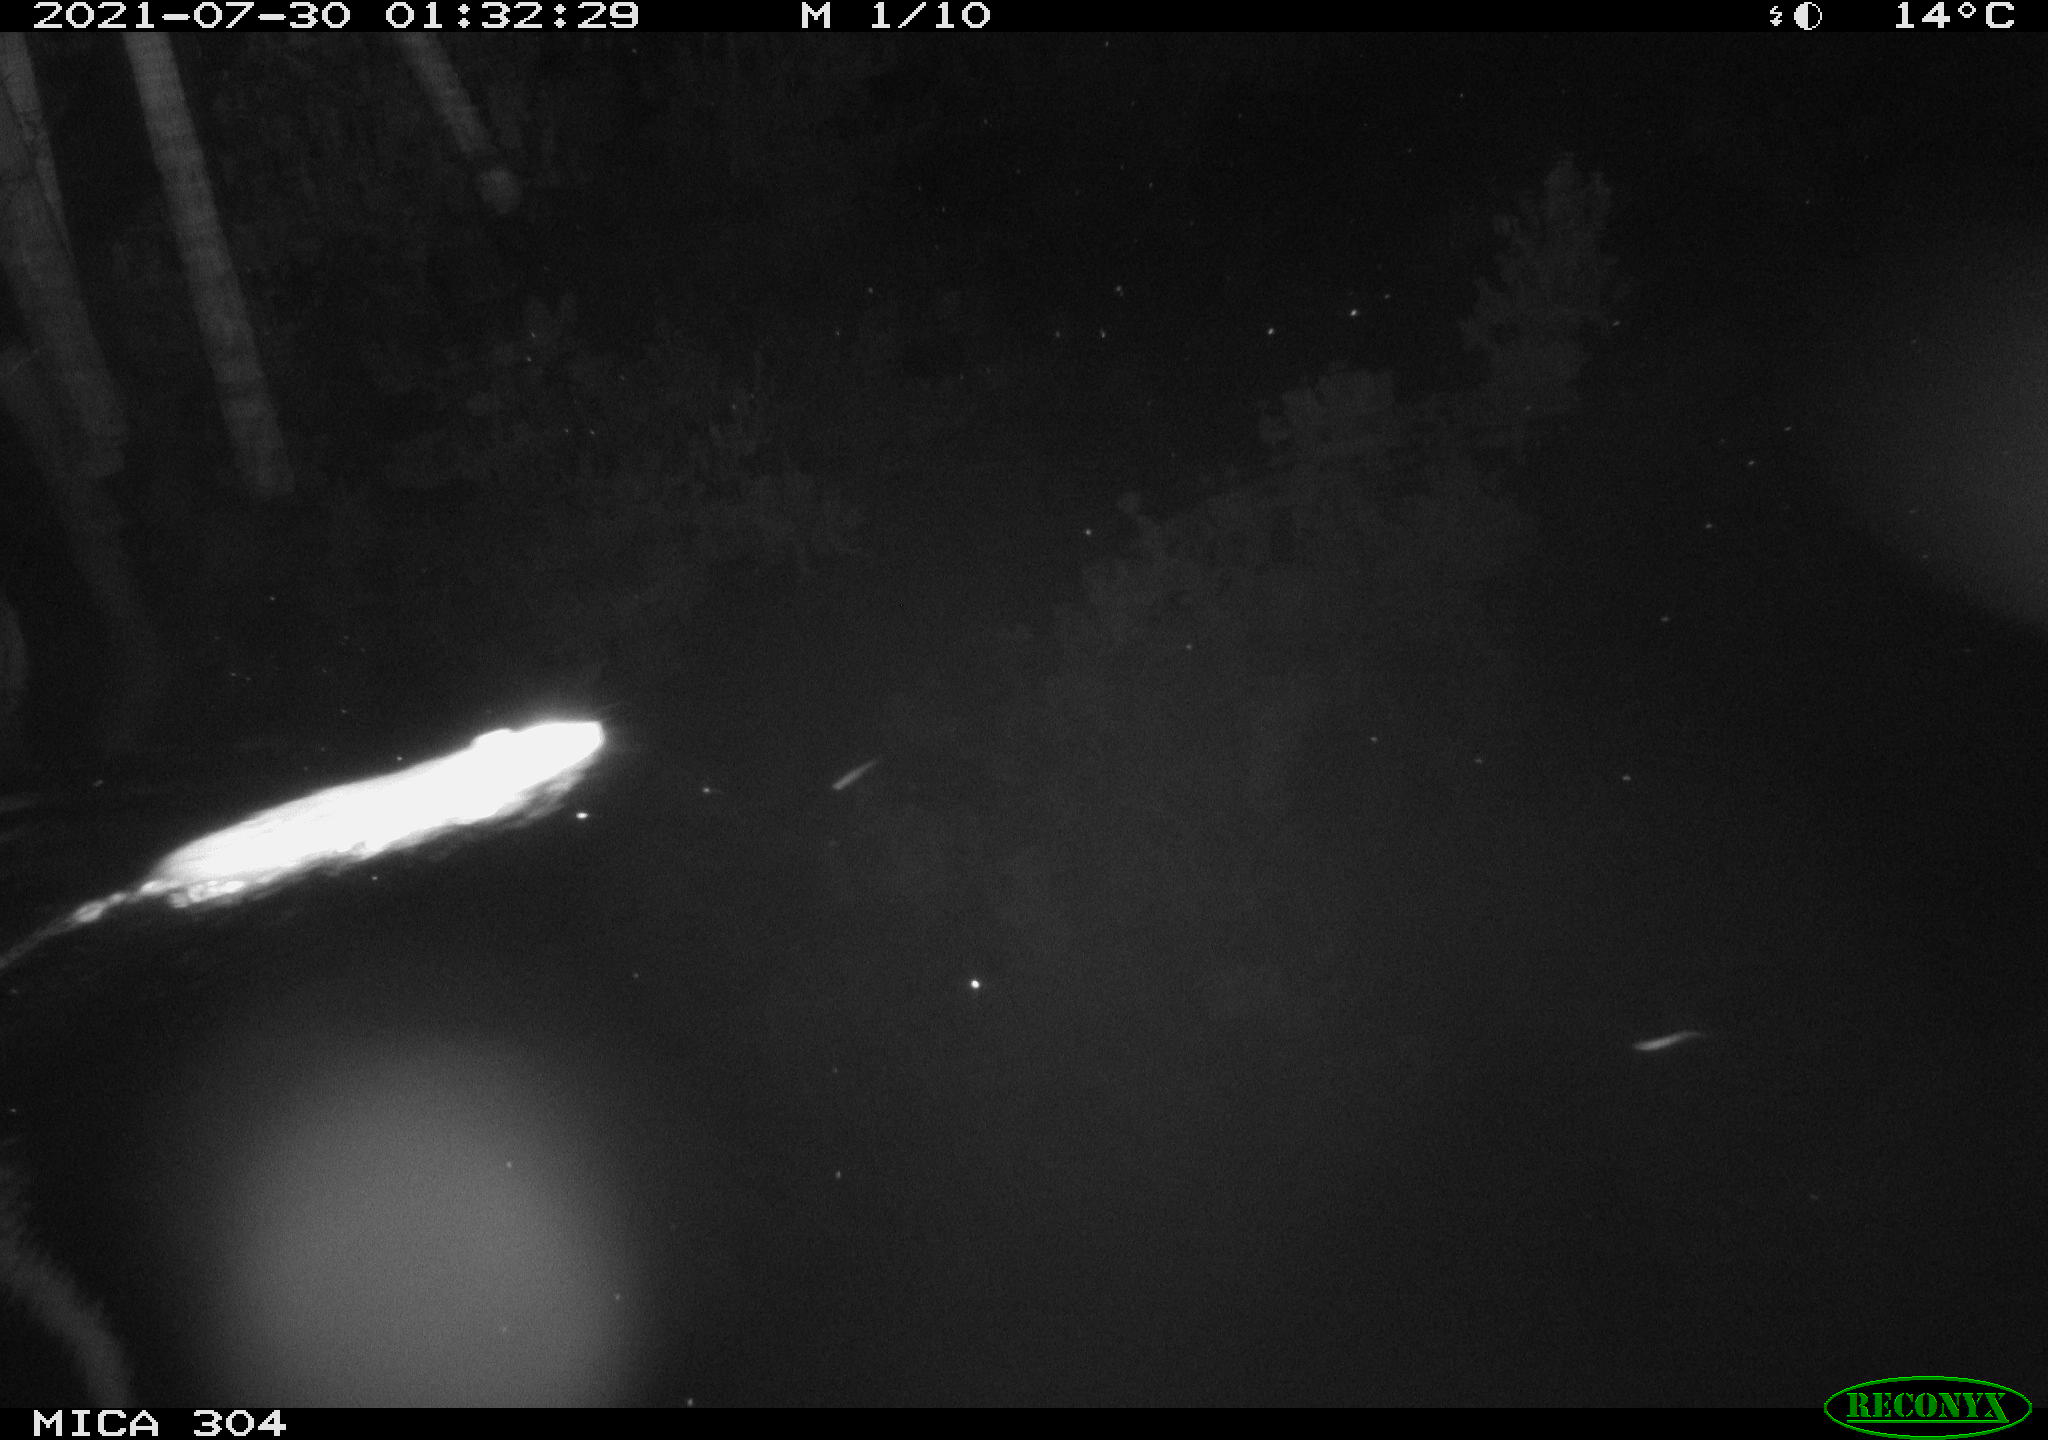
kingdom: Animalia
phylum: Chordata
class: Mammalia
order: Rodentia
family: Muridae
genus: Rattus
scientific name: Rattus norvegicus
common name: Brown rat
